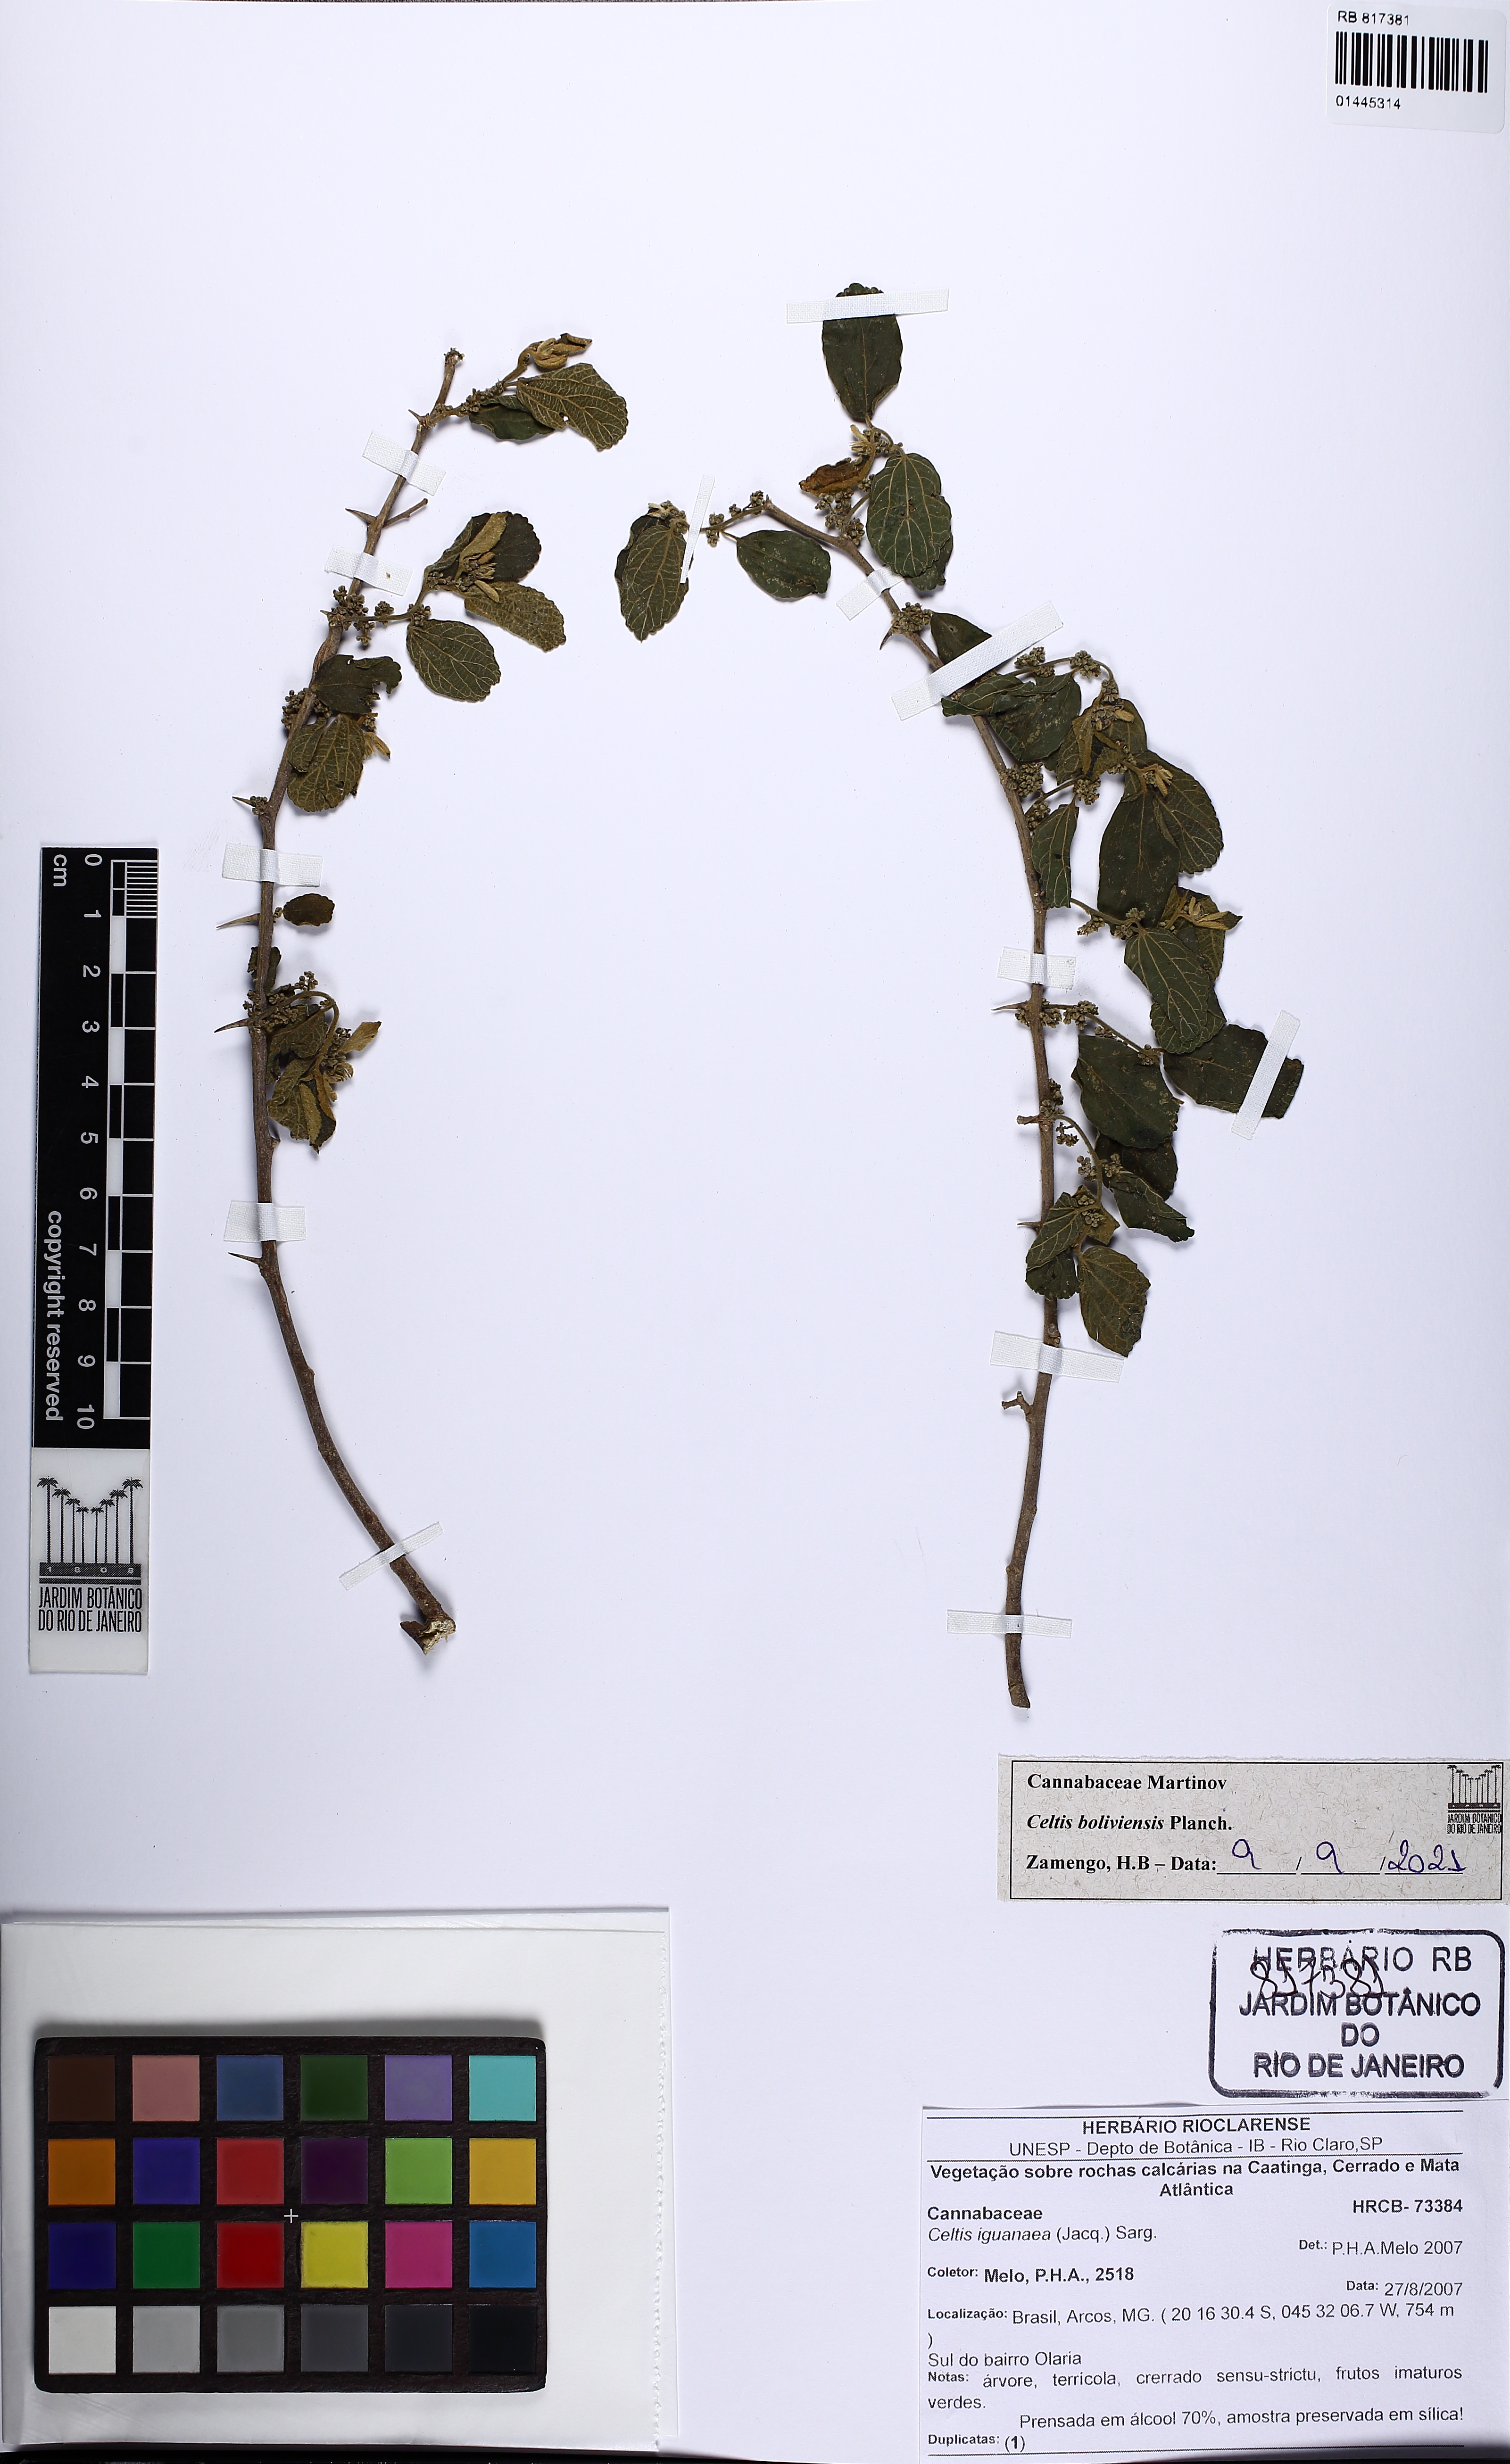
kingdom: Plantae
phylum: Tracheophyta
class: Magnoliopsida
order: Rosales
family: Cannabaceae
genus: Celtis
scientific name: Celtis brasiliensis
